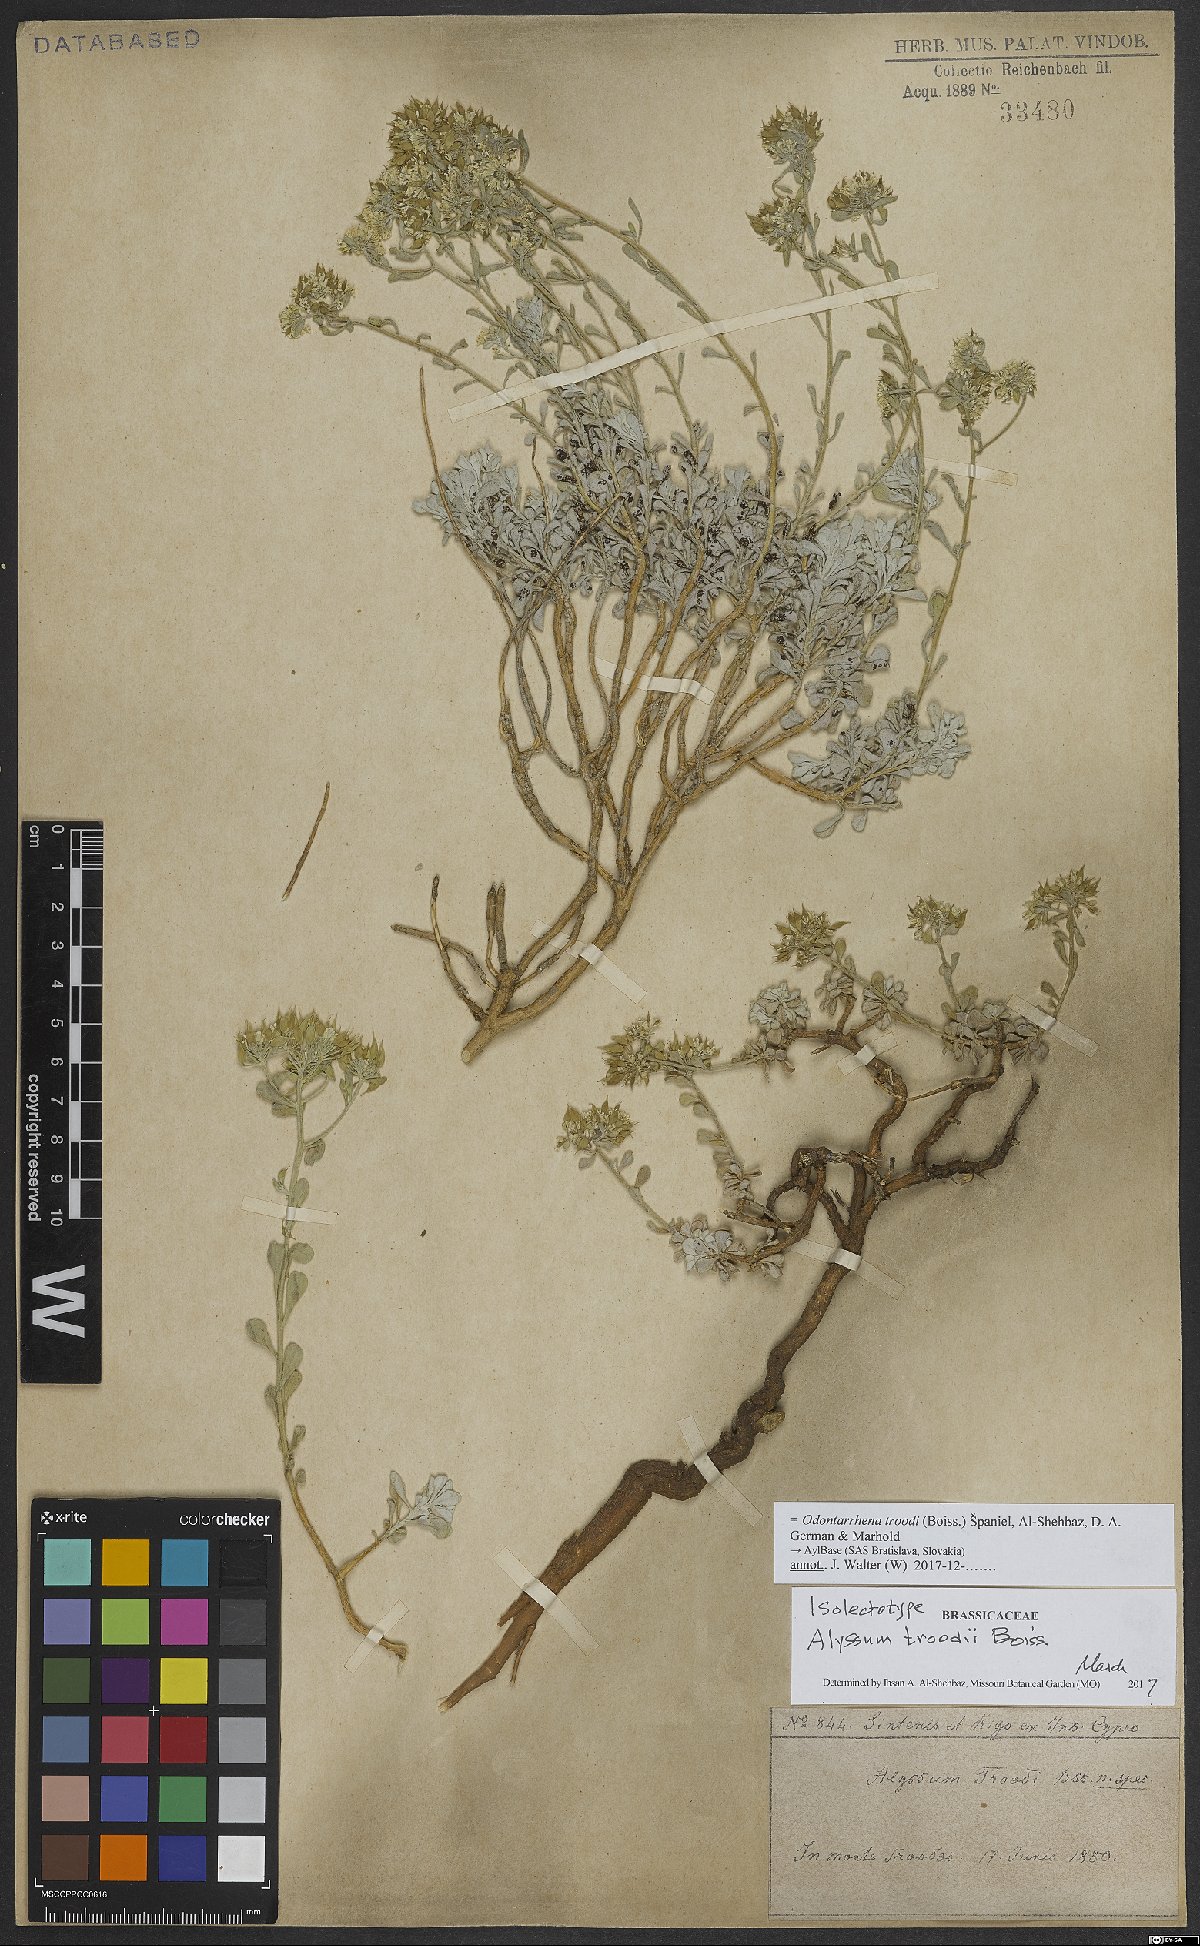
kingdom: Plantae
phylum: Tracheophyta
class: Magnoliopsida
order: Brassicales
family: Brassicaceae
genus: Odontarrhena
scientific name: Odontarrhena troodi
